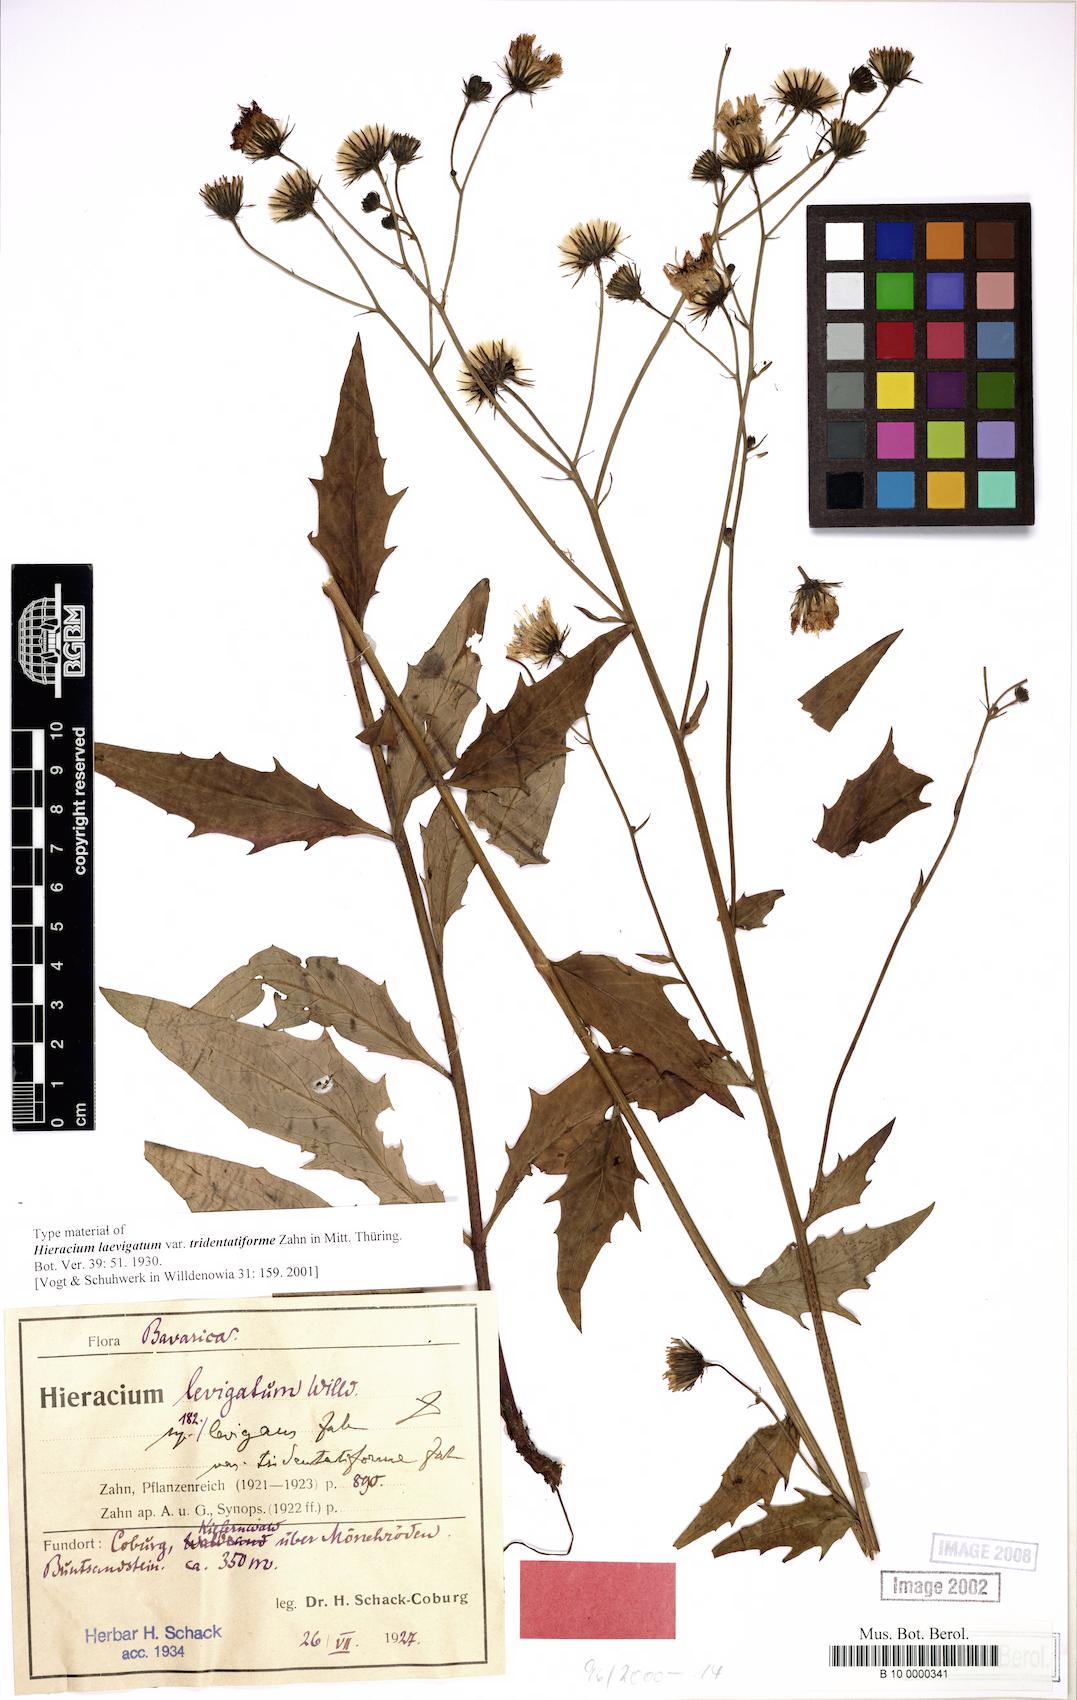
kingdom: Plantae
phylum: Tracheophyta
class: Magnoliopsida
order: Asterales
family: Asteraceae
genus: Hieracium
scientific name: Hieracium laevigatum
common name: Smooth hawkweed
